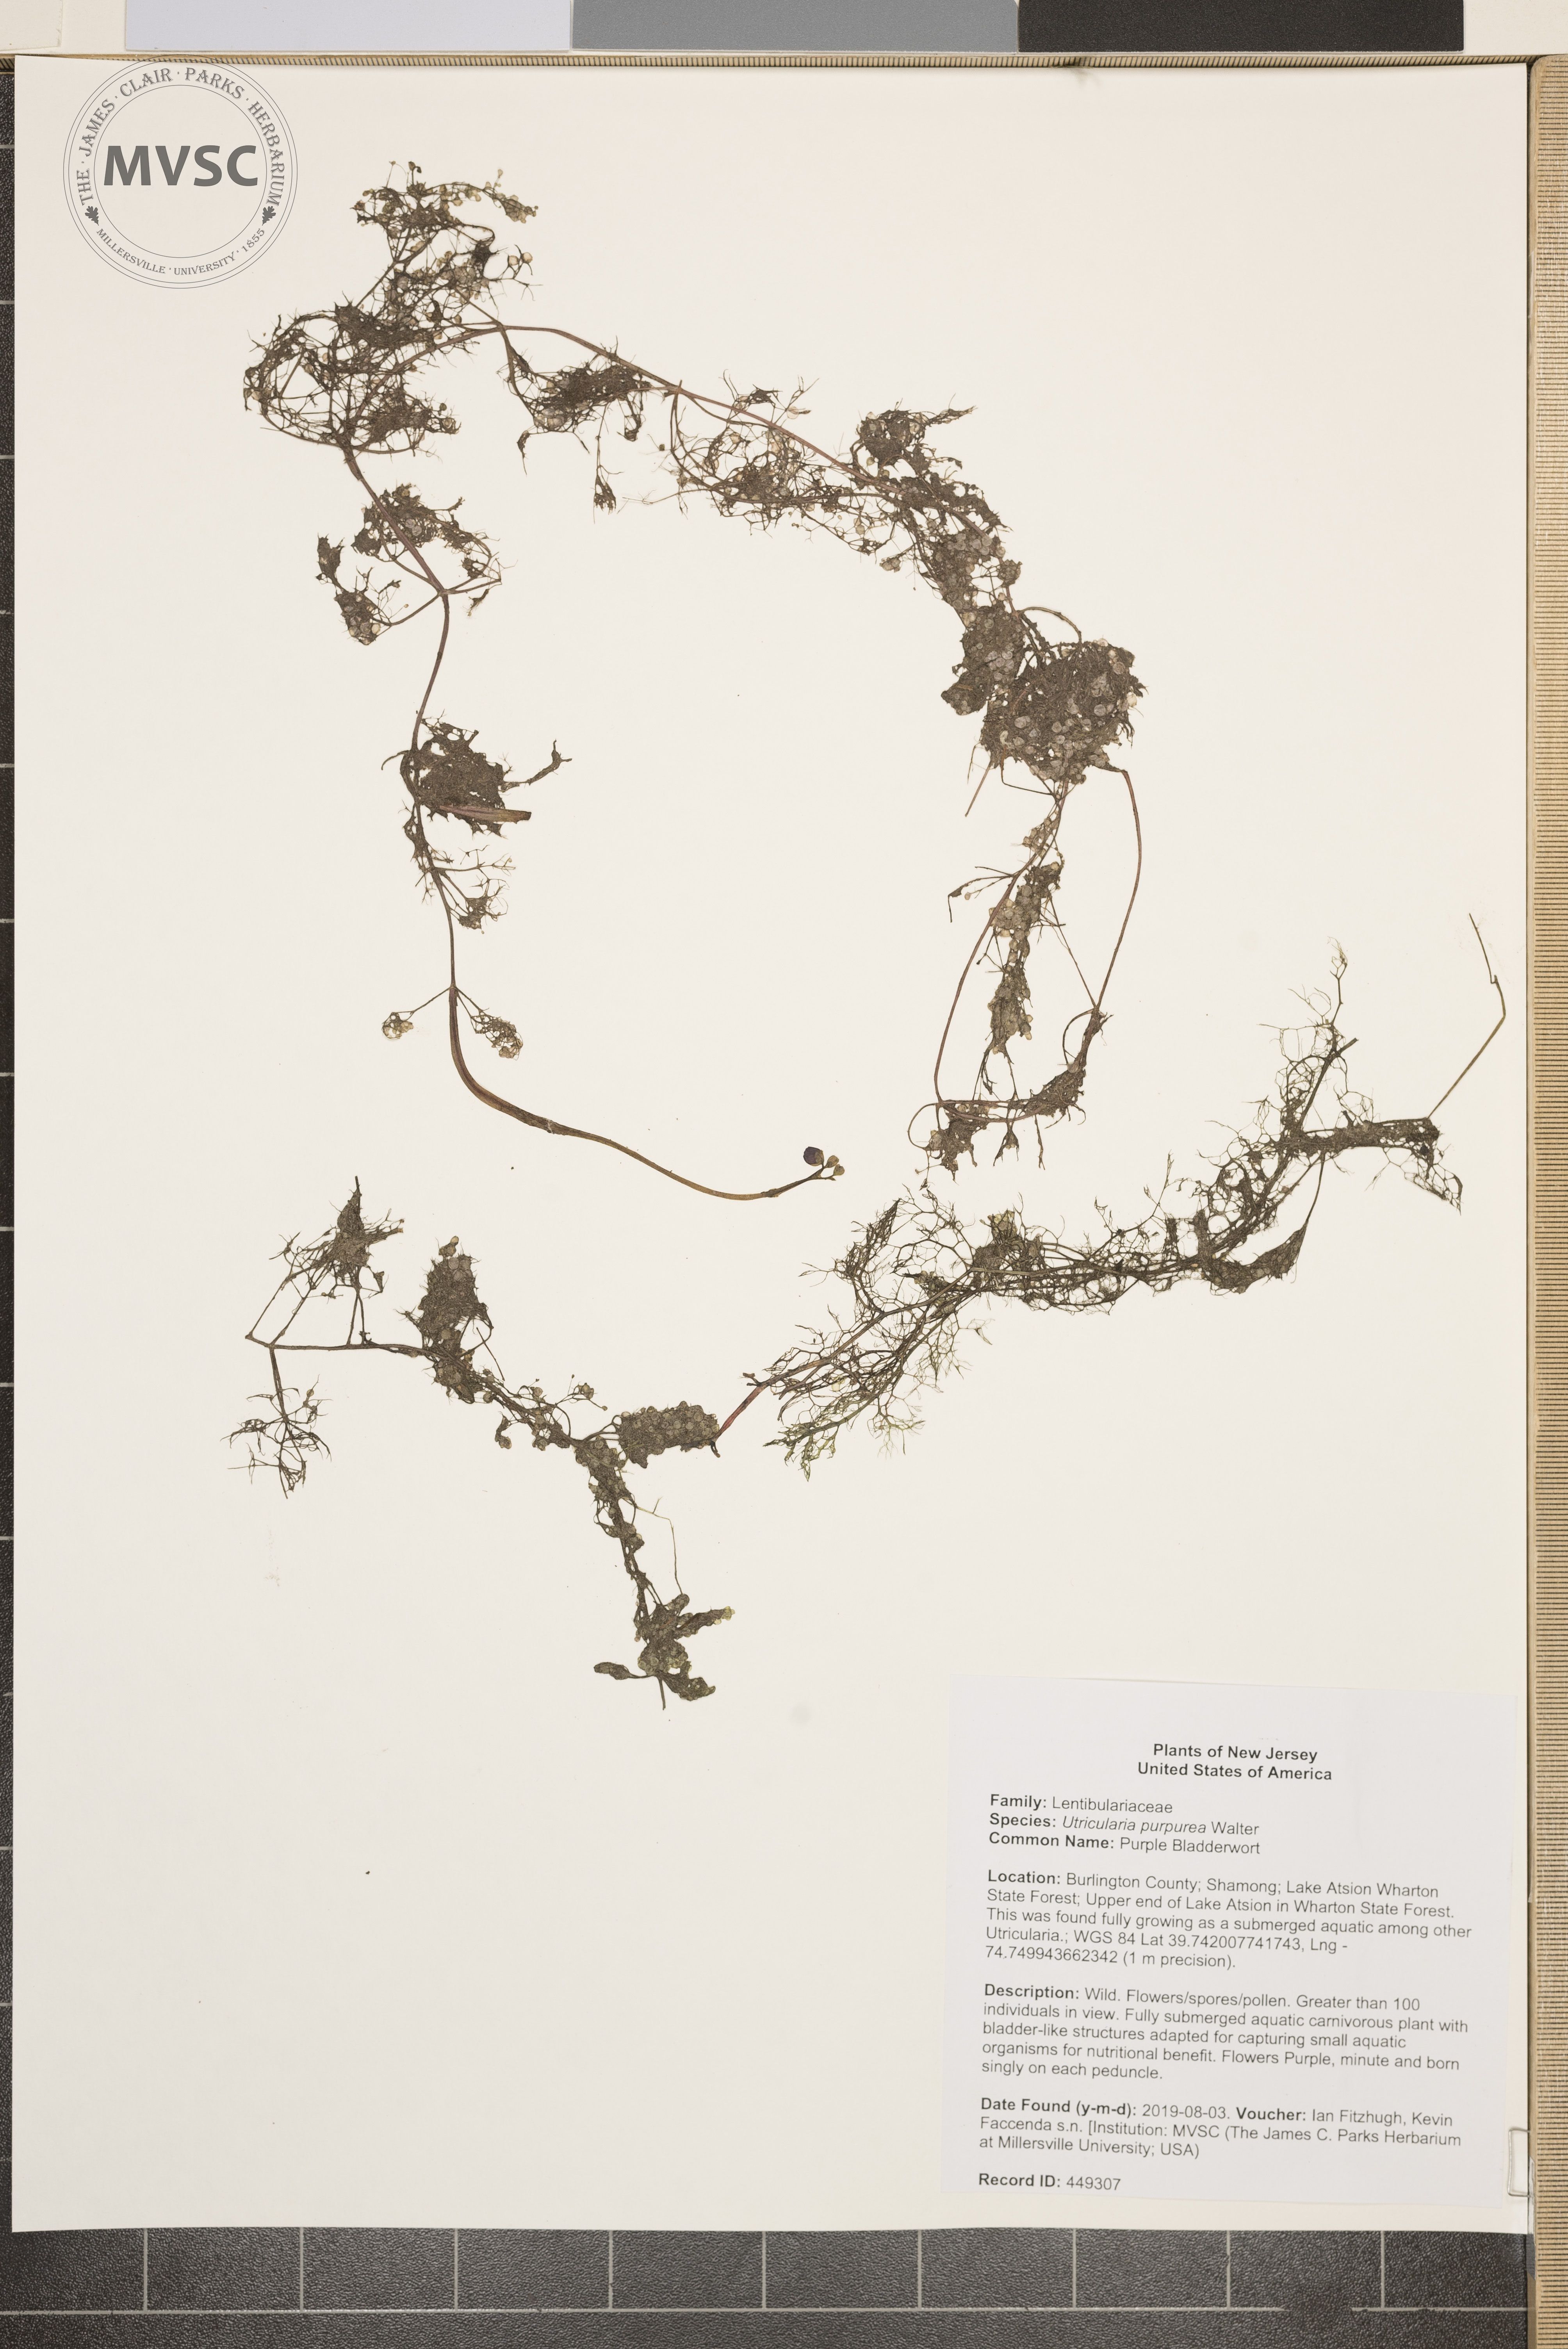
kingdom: Plantae
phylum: Tracheophyta
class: Magnoliopsida
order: Lamiales
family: Lentibulariaceae
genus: Utricularia
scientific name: Utricularia purpurea
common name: Purple Bladderwort
